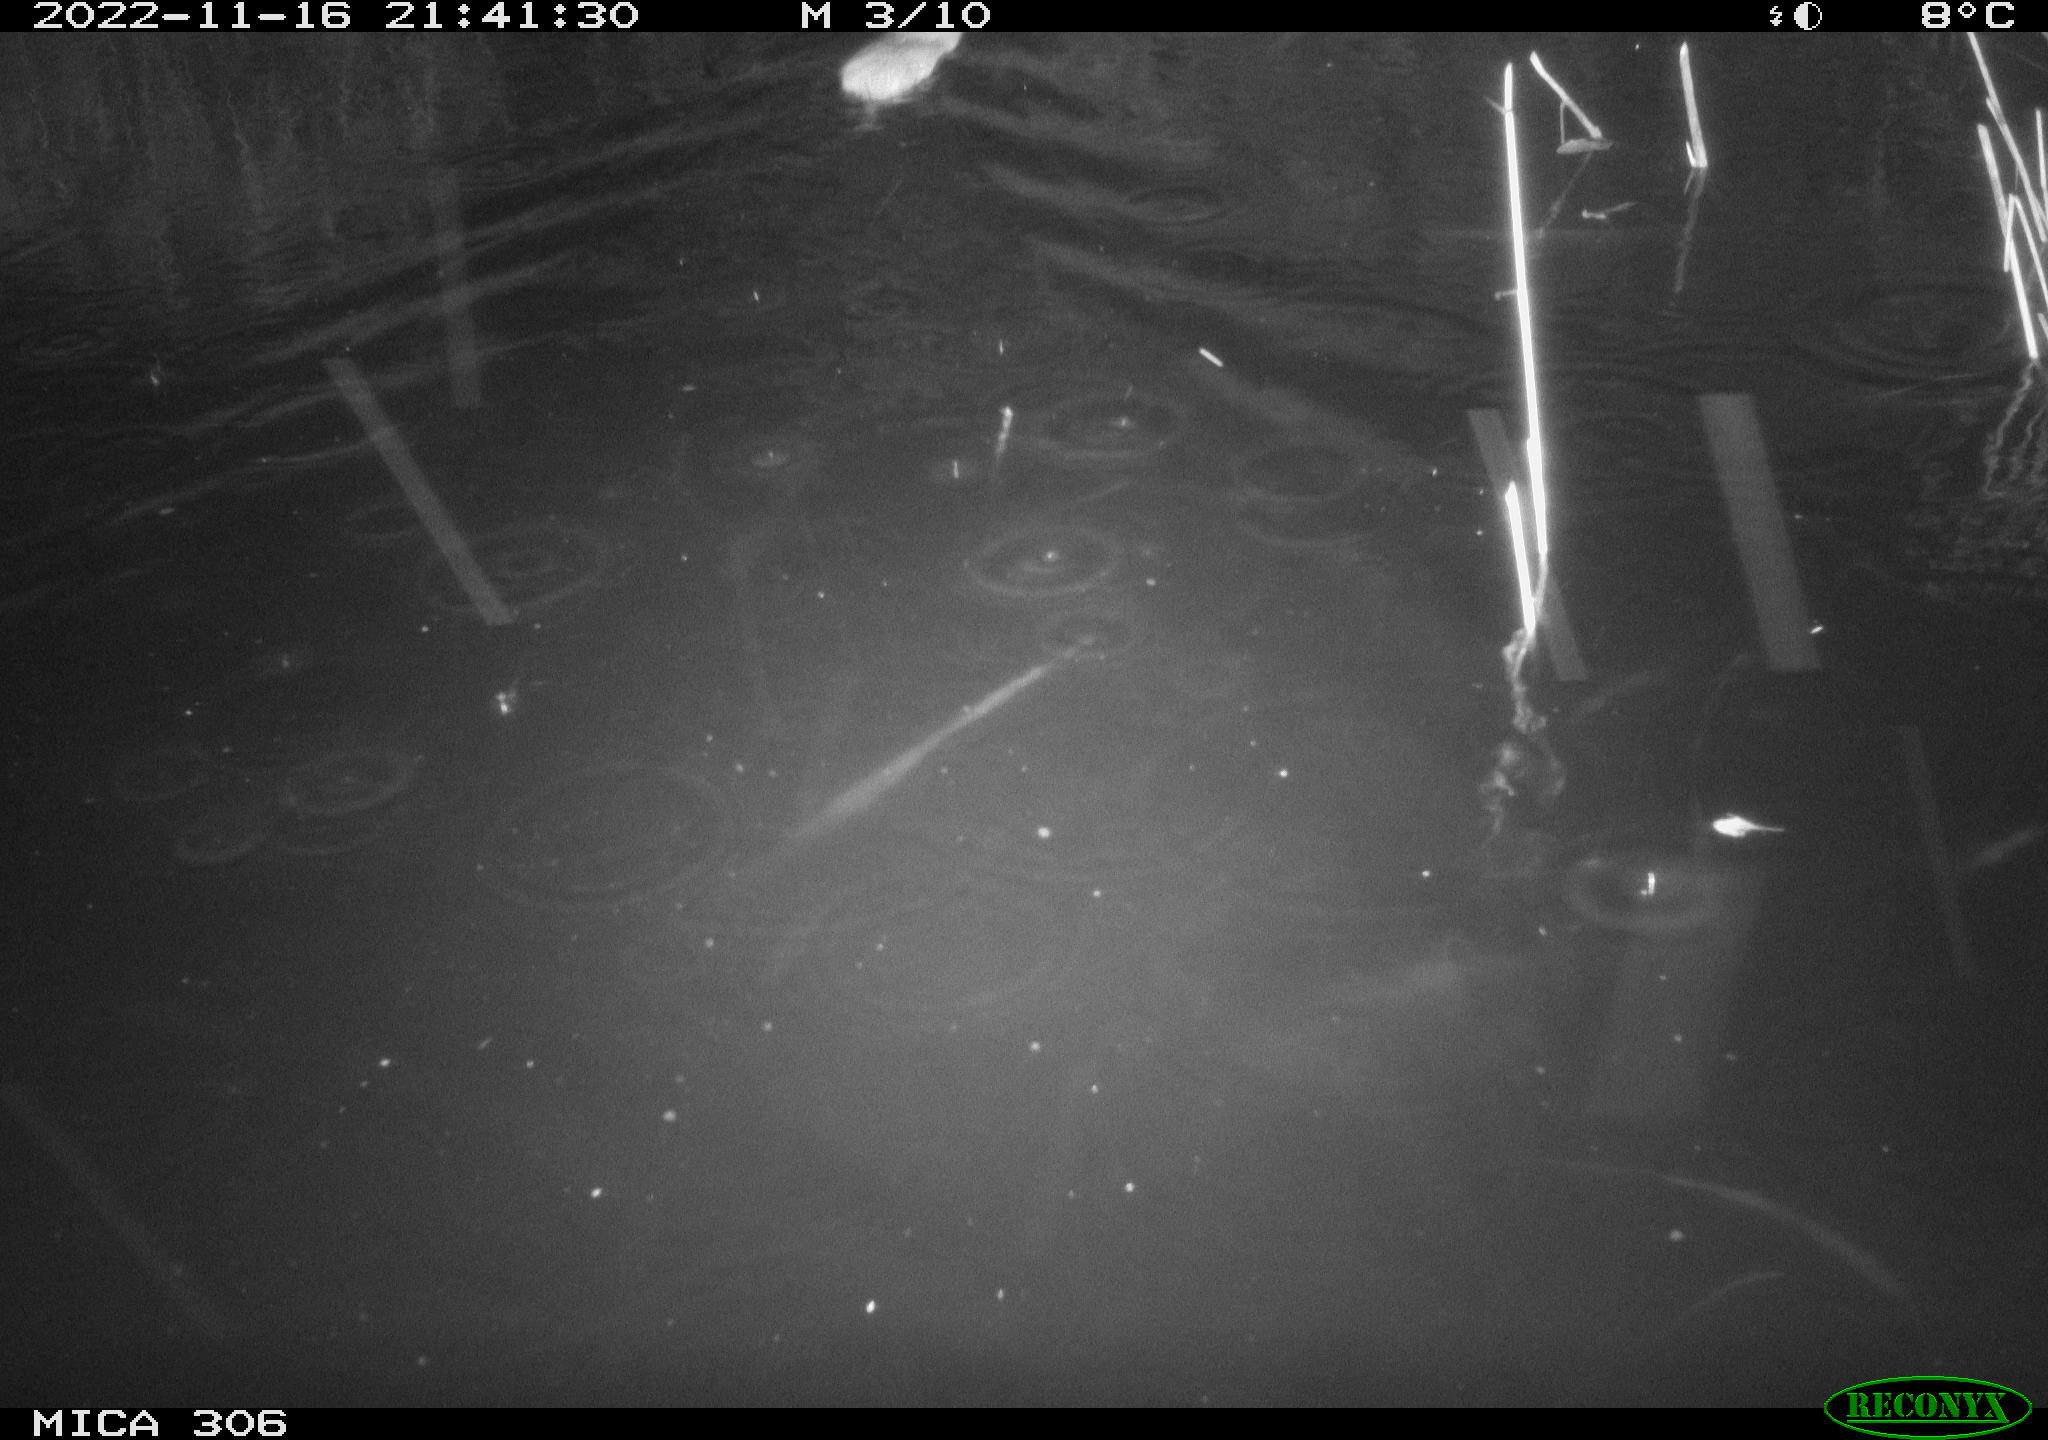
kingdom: Animalia
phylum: Chordata
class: Mammalia
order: Rodentia
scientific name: Rodentia
